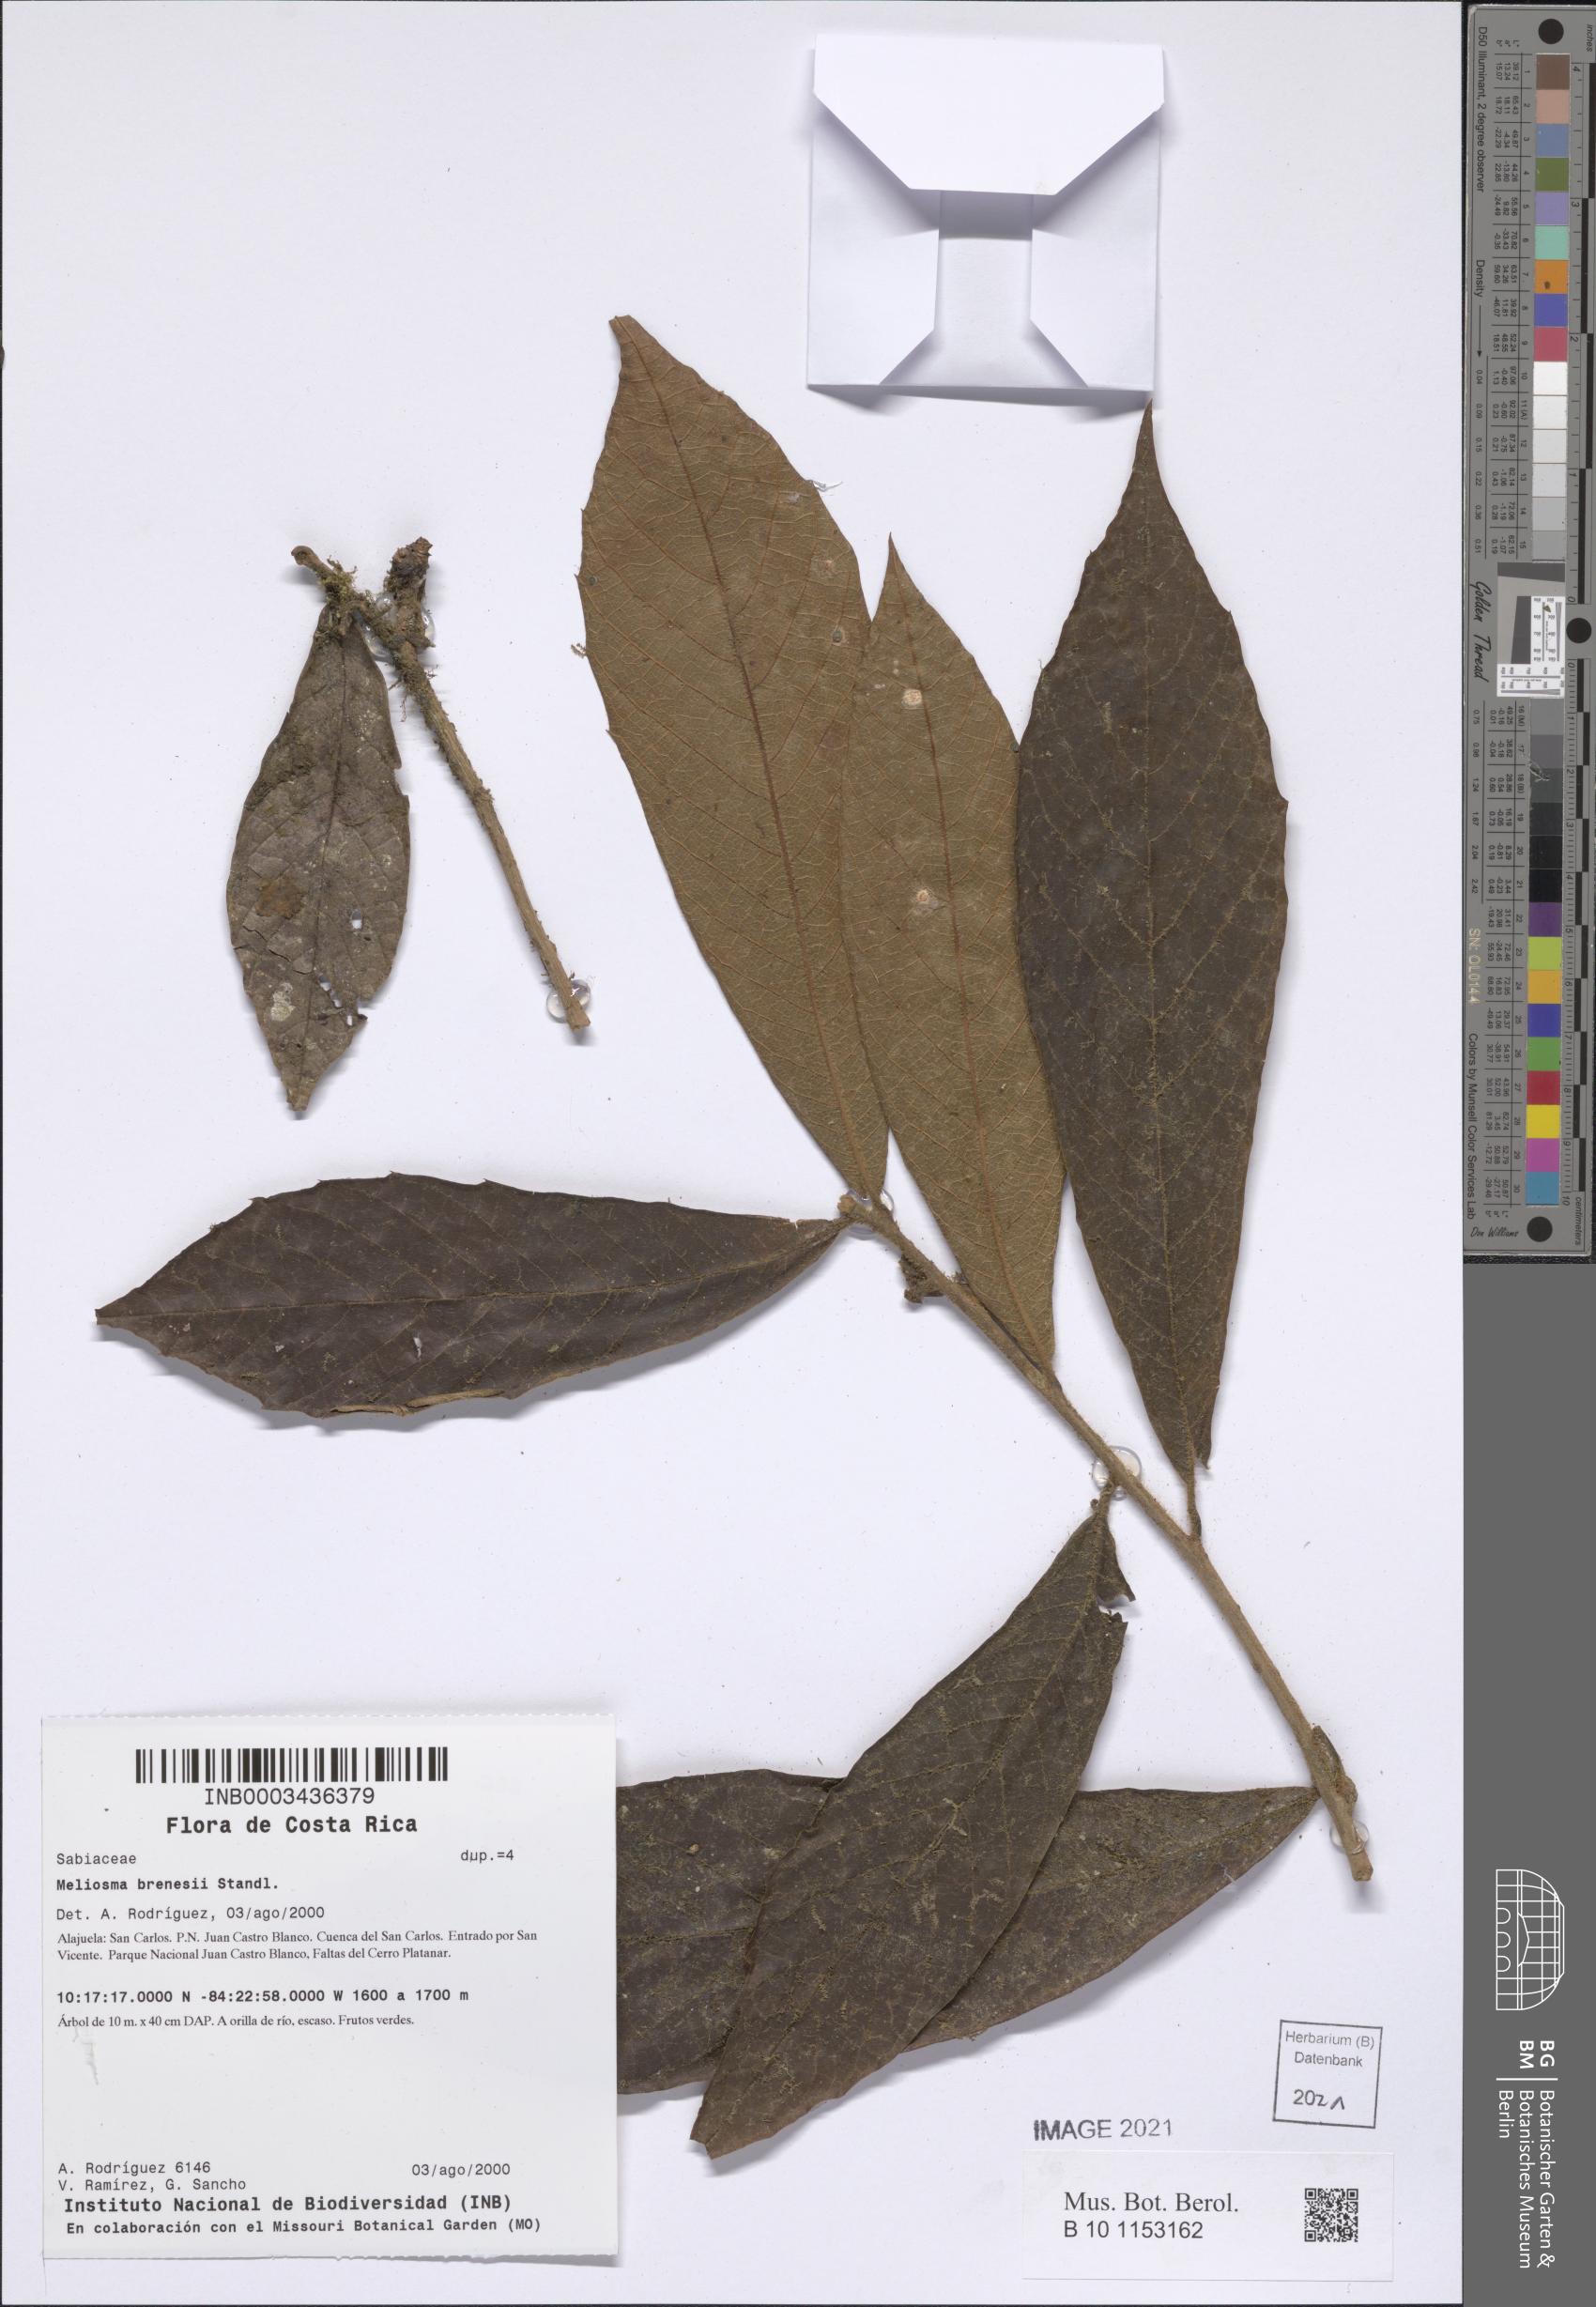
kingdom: Plantae
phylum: Tracheophyta
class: Magnoliopsida
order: Proteales
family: Sabiaceae
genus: Meliosma
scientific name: Meliosma brenesii
